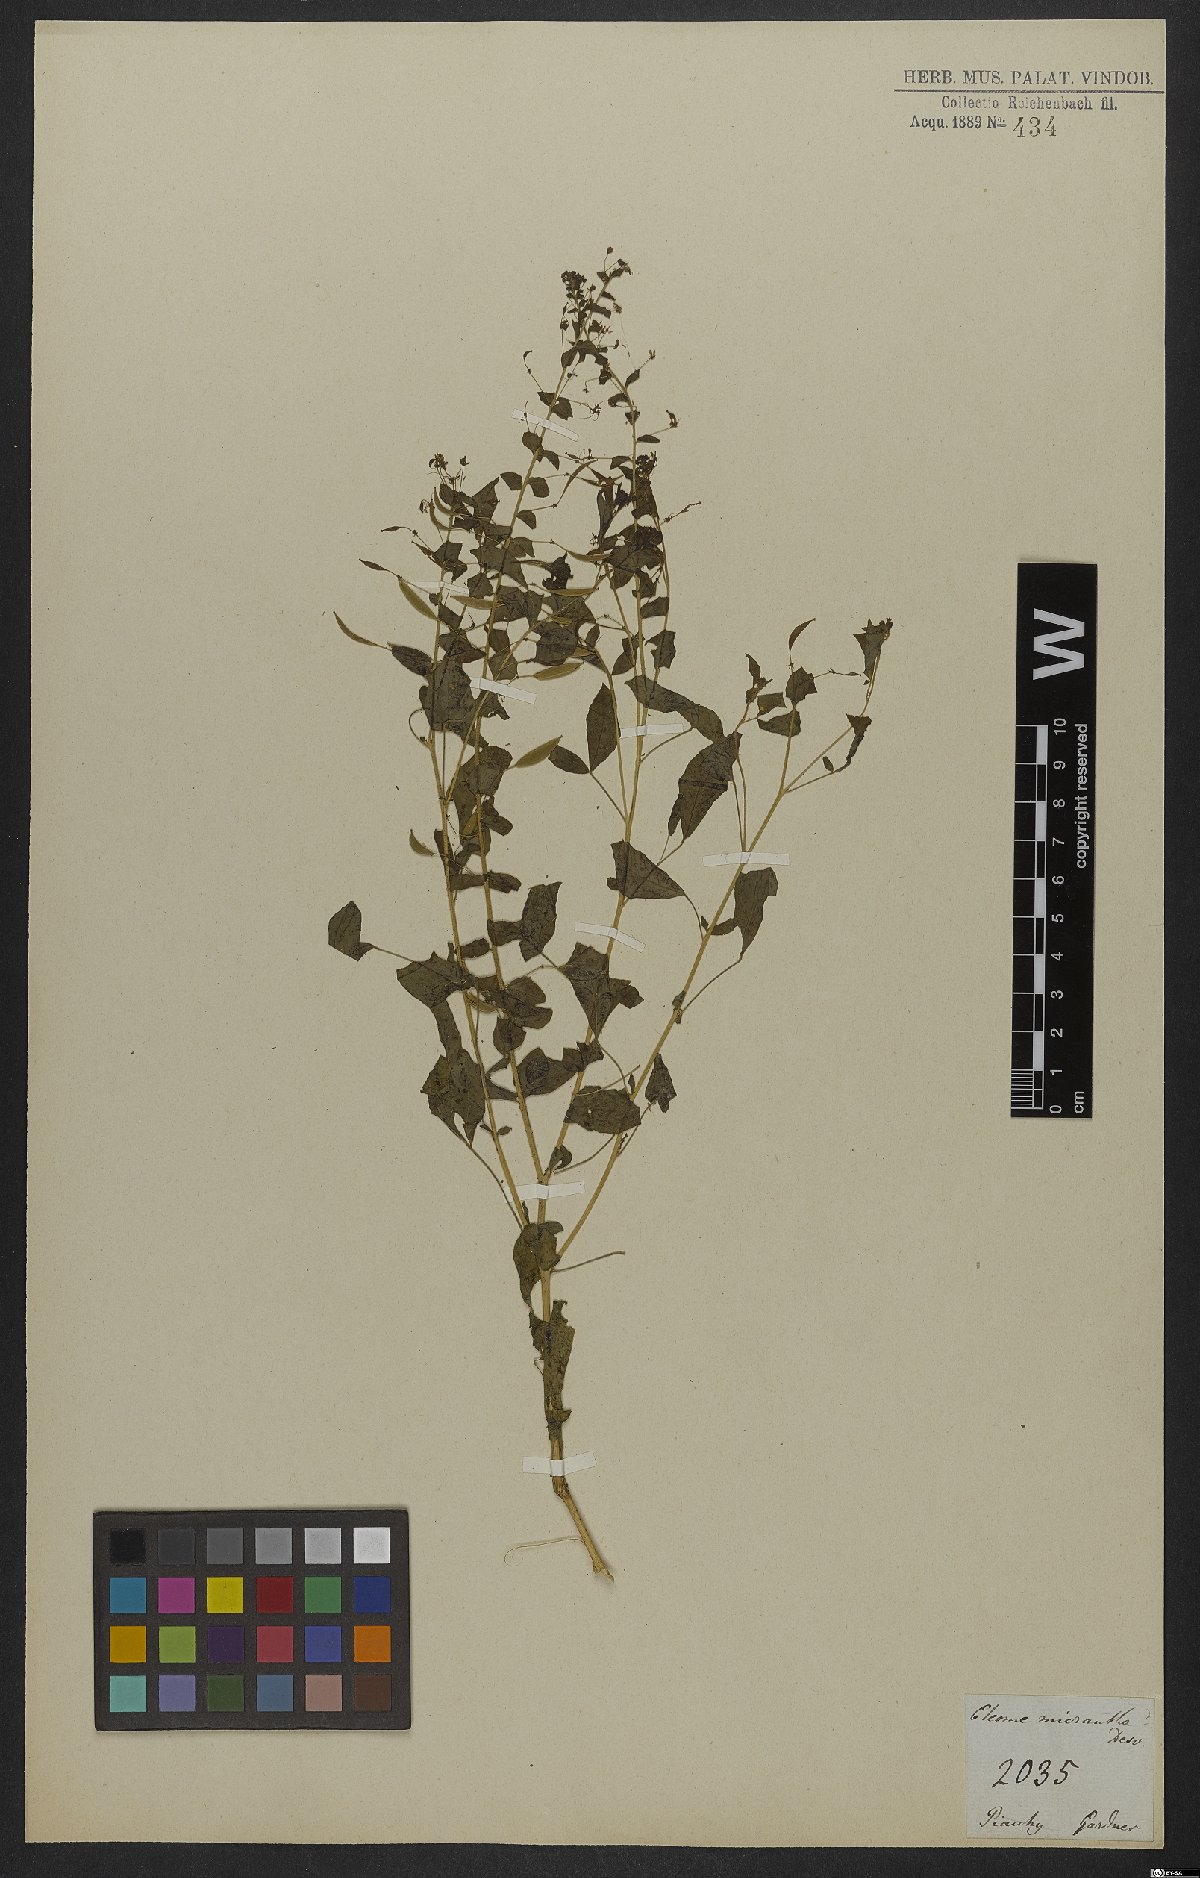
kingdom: Plantae
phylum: Tracheophyta
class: Magnoliopsida
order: Brassicales
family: Cleomaceae
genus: Tarenaya
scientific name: Tarenaya parviflora
